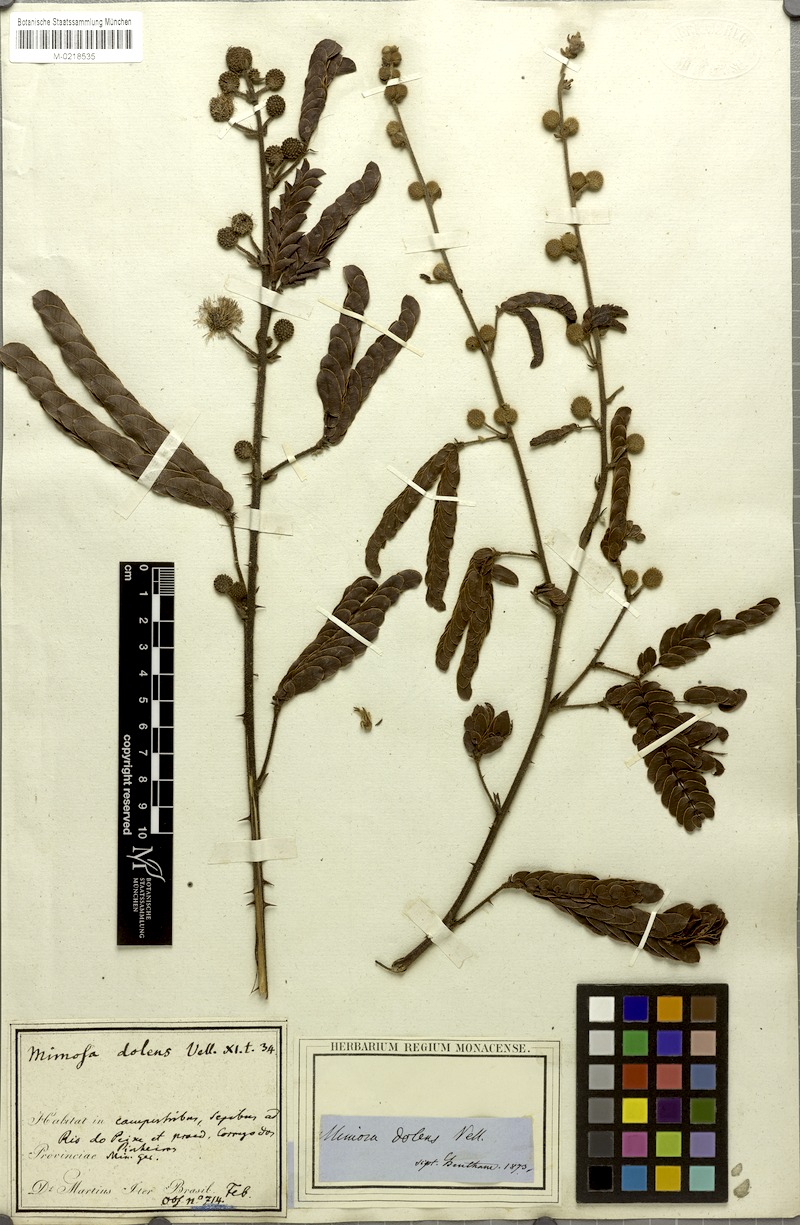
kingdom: Plantae
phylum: Tracheophyta
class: Magnoliopsida
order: Fabales
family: Fabaceae
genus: Mimosa
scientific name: Mimosa dolens
